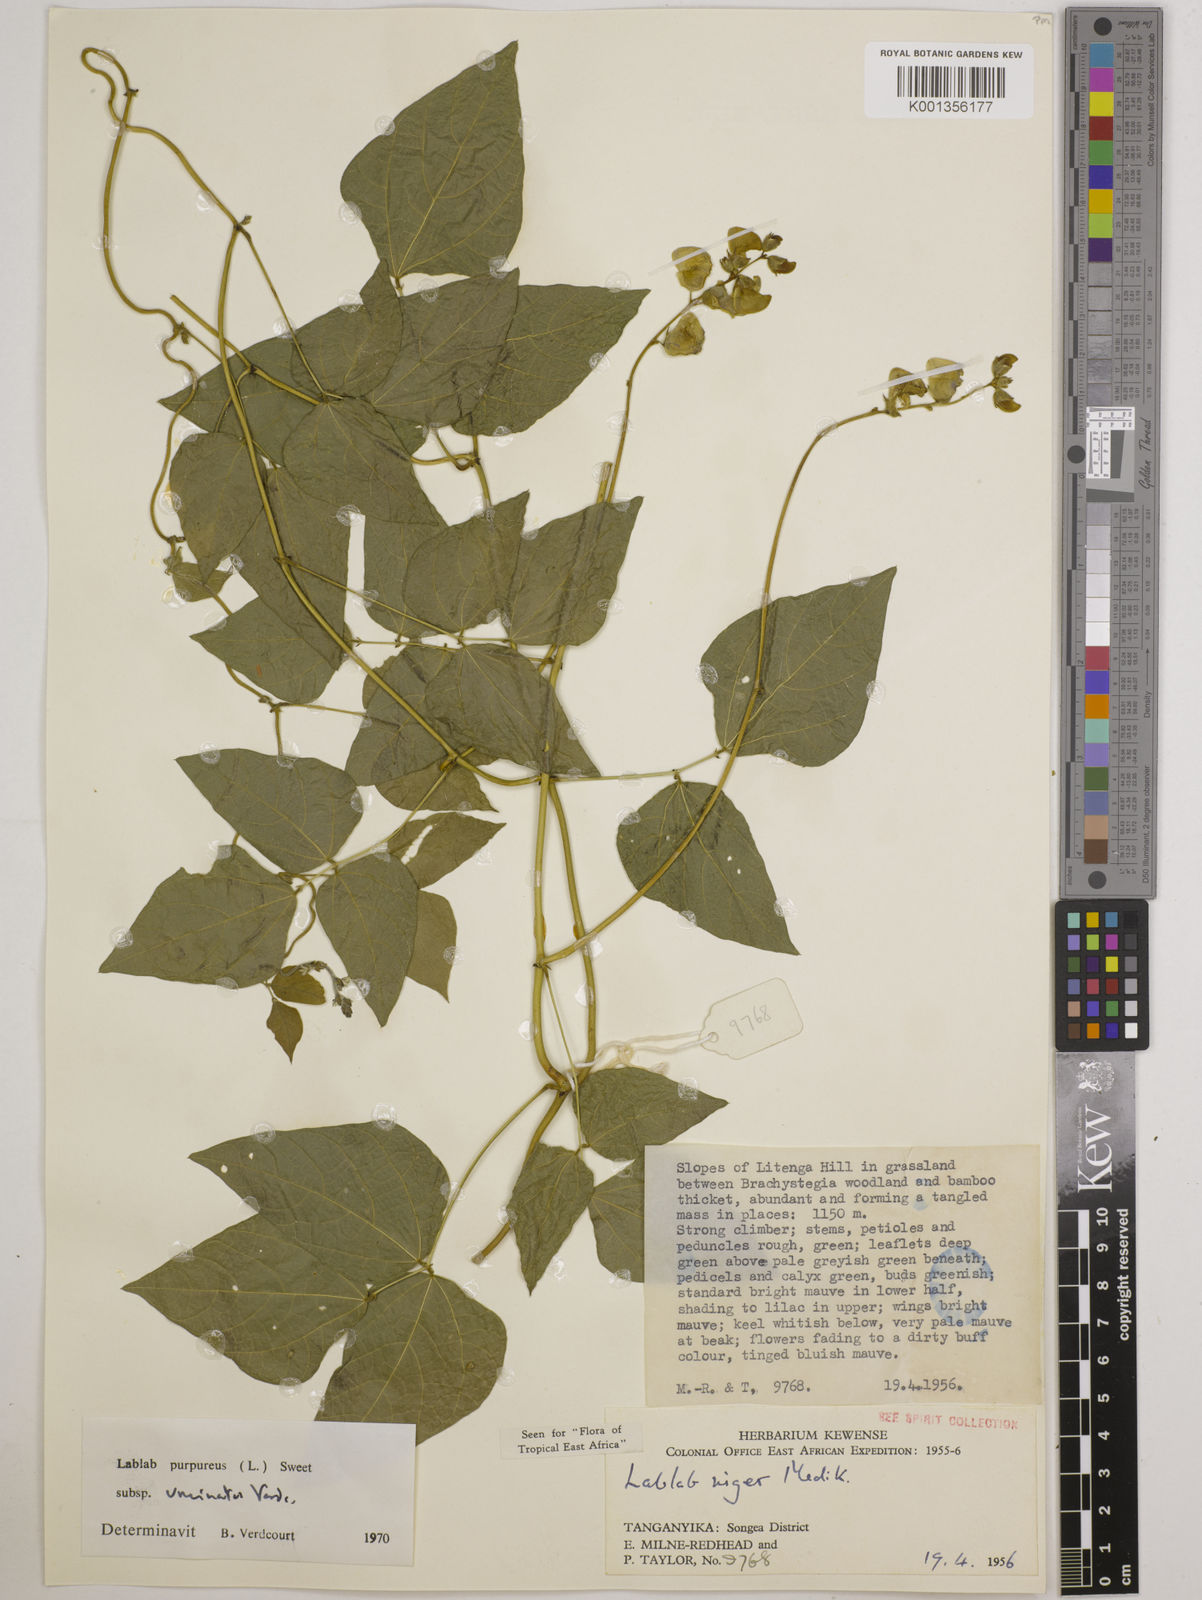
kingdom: Plantae
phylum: Tracheophyta
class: Magnoliopsida
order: Fabales
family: Fabaceae
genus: Lablab
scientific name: Lablab purpureus
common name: Lablab-bean
